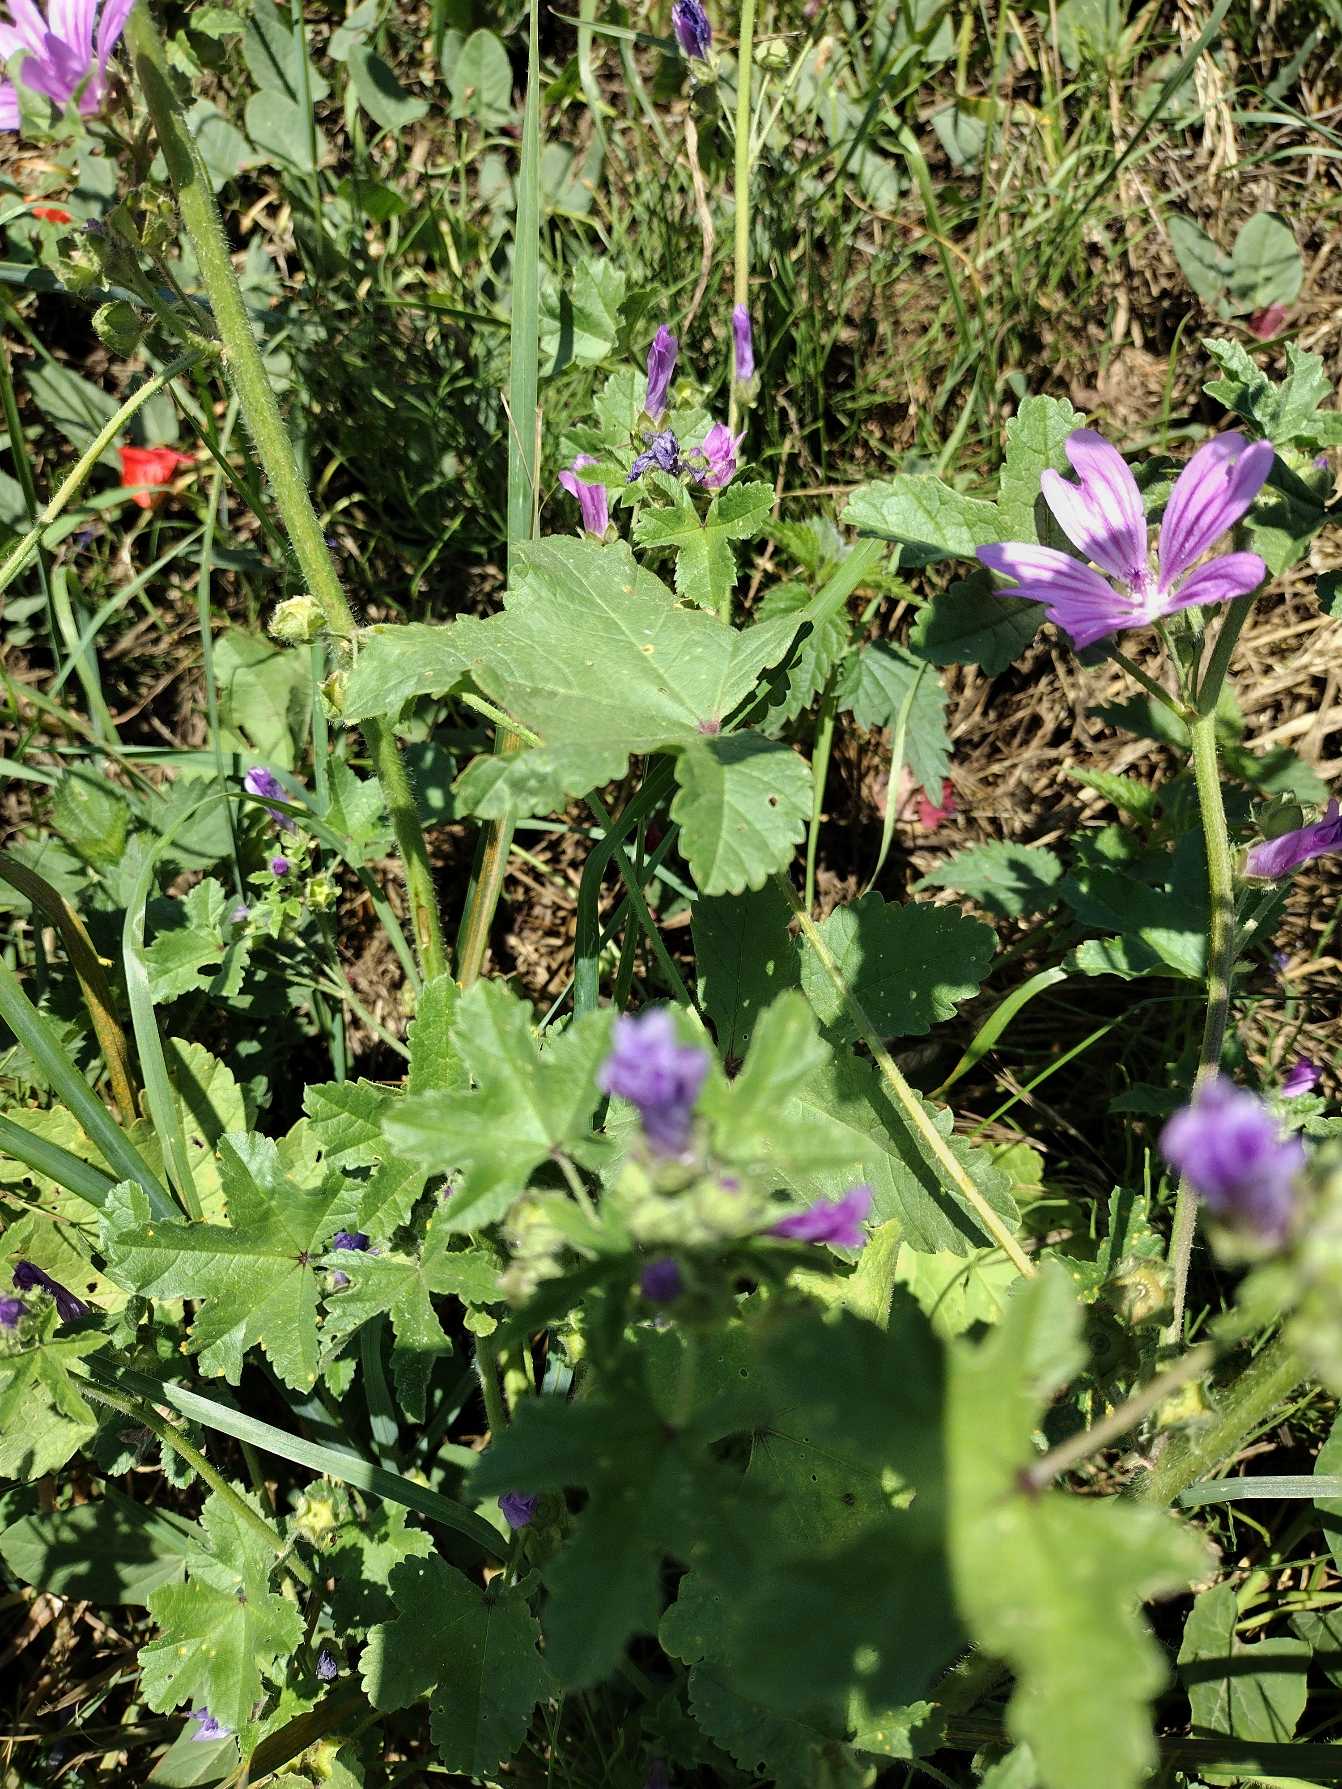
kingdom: Plantae
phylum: Tracheophyta
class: Magnoliopsida
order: Malvales
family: Malvaceae
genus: Malva
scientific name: Malva sylvestris
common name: Almindelig katost
